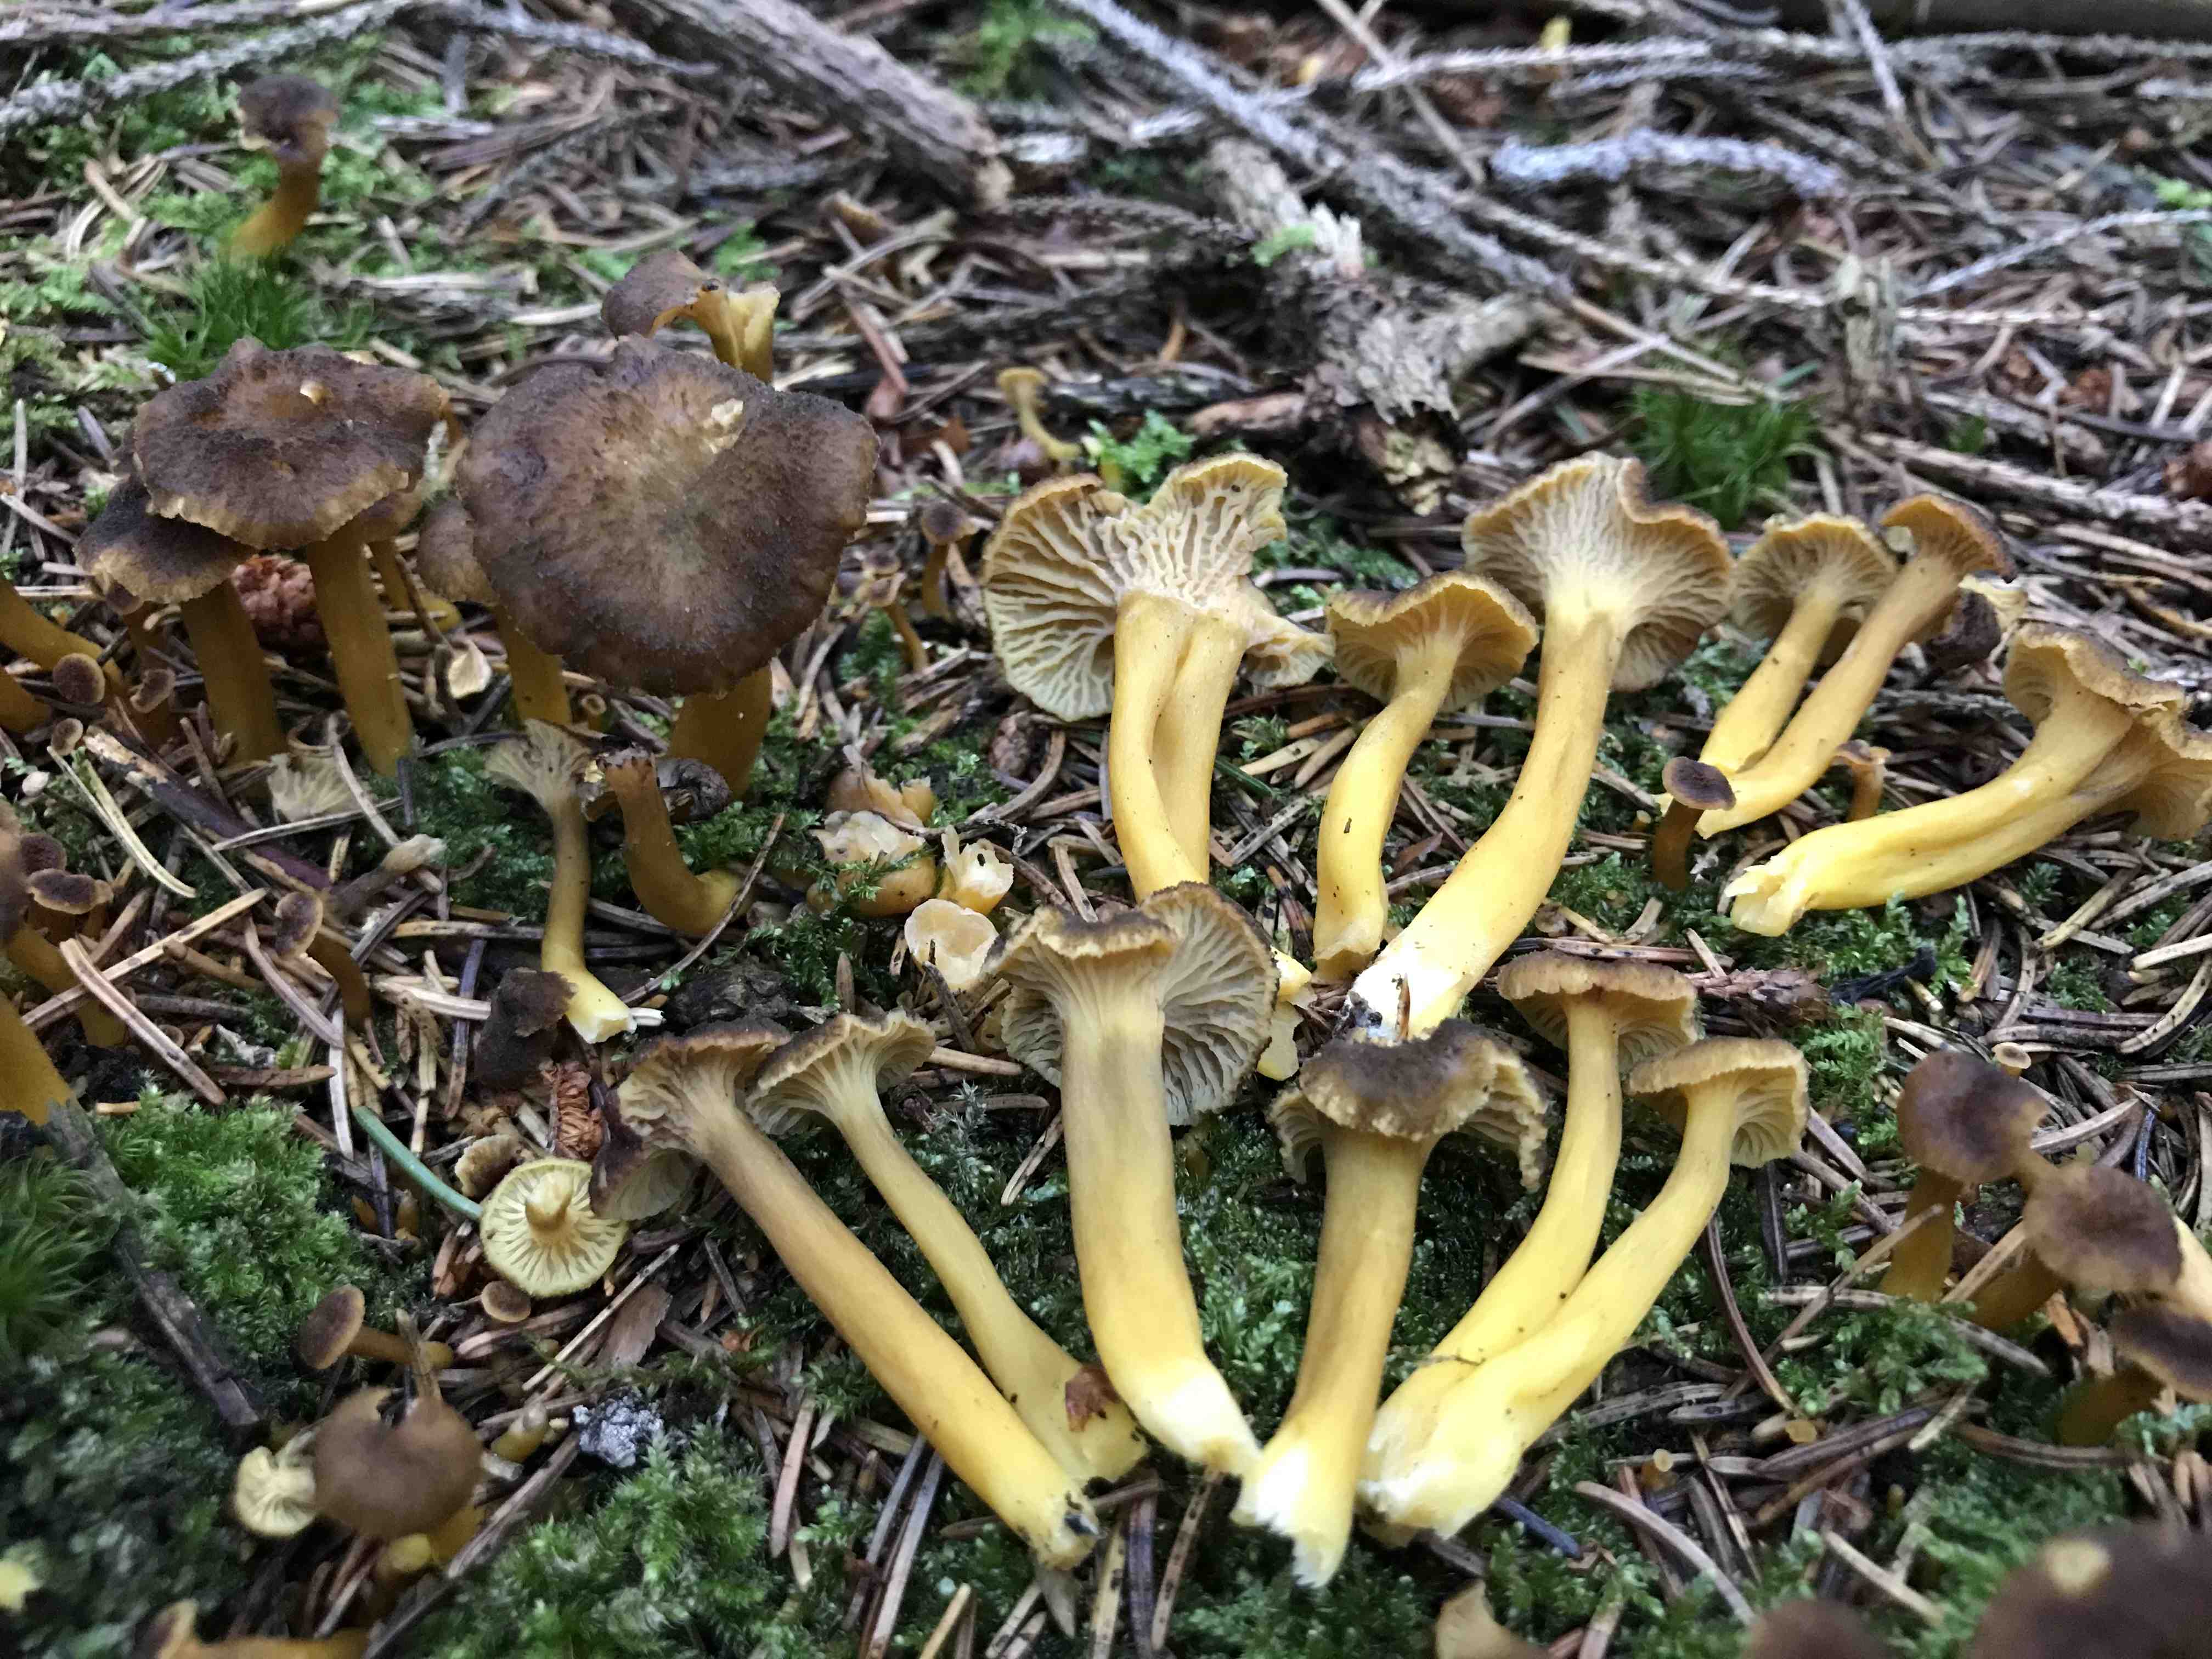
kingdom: Fungi
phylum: Basidiomycota
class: Agaricomycetes
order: Cantharellales
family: Hydnaceae
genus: Craterellus
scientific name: Craterellus tubaeformis
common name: tragt-kantarel
